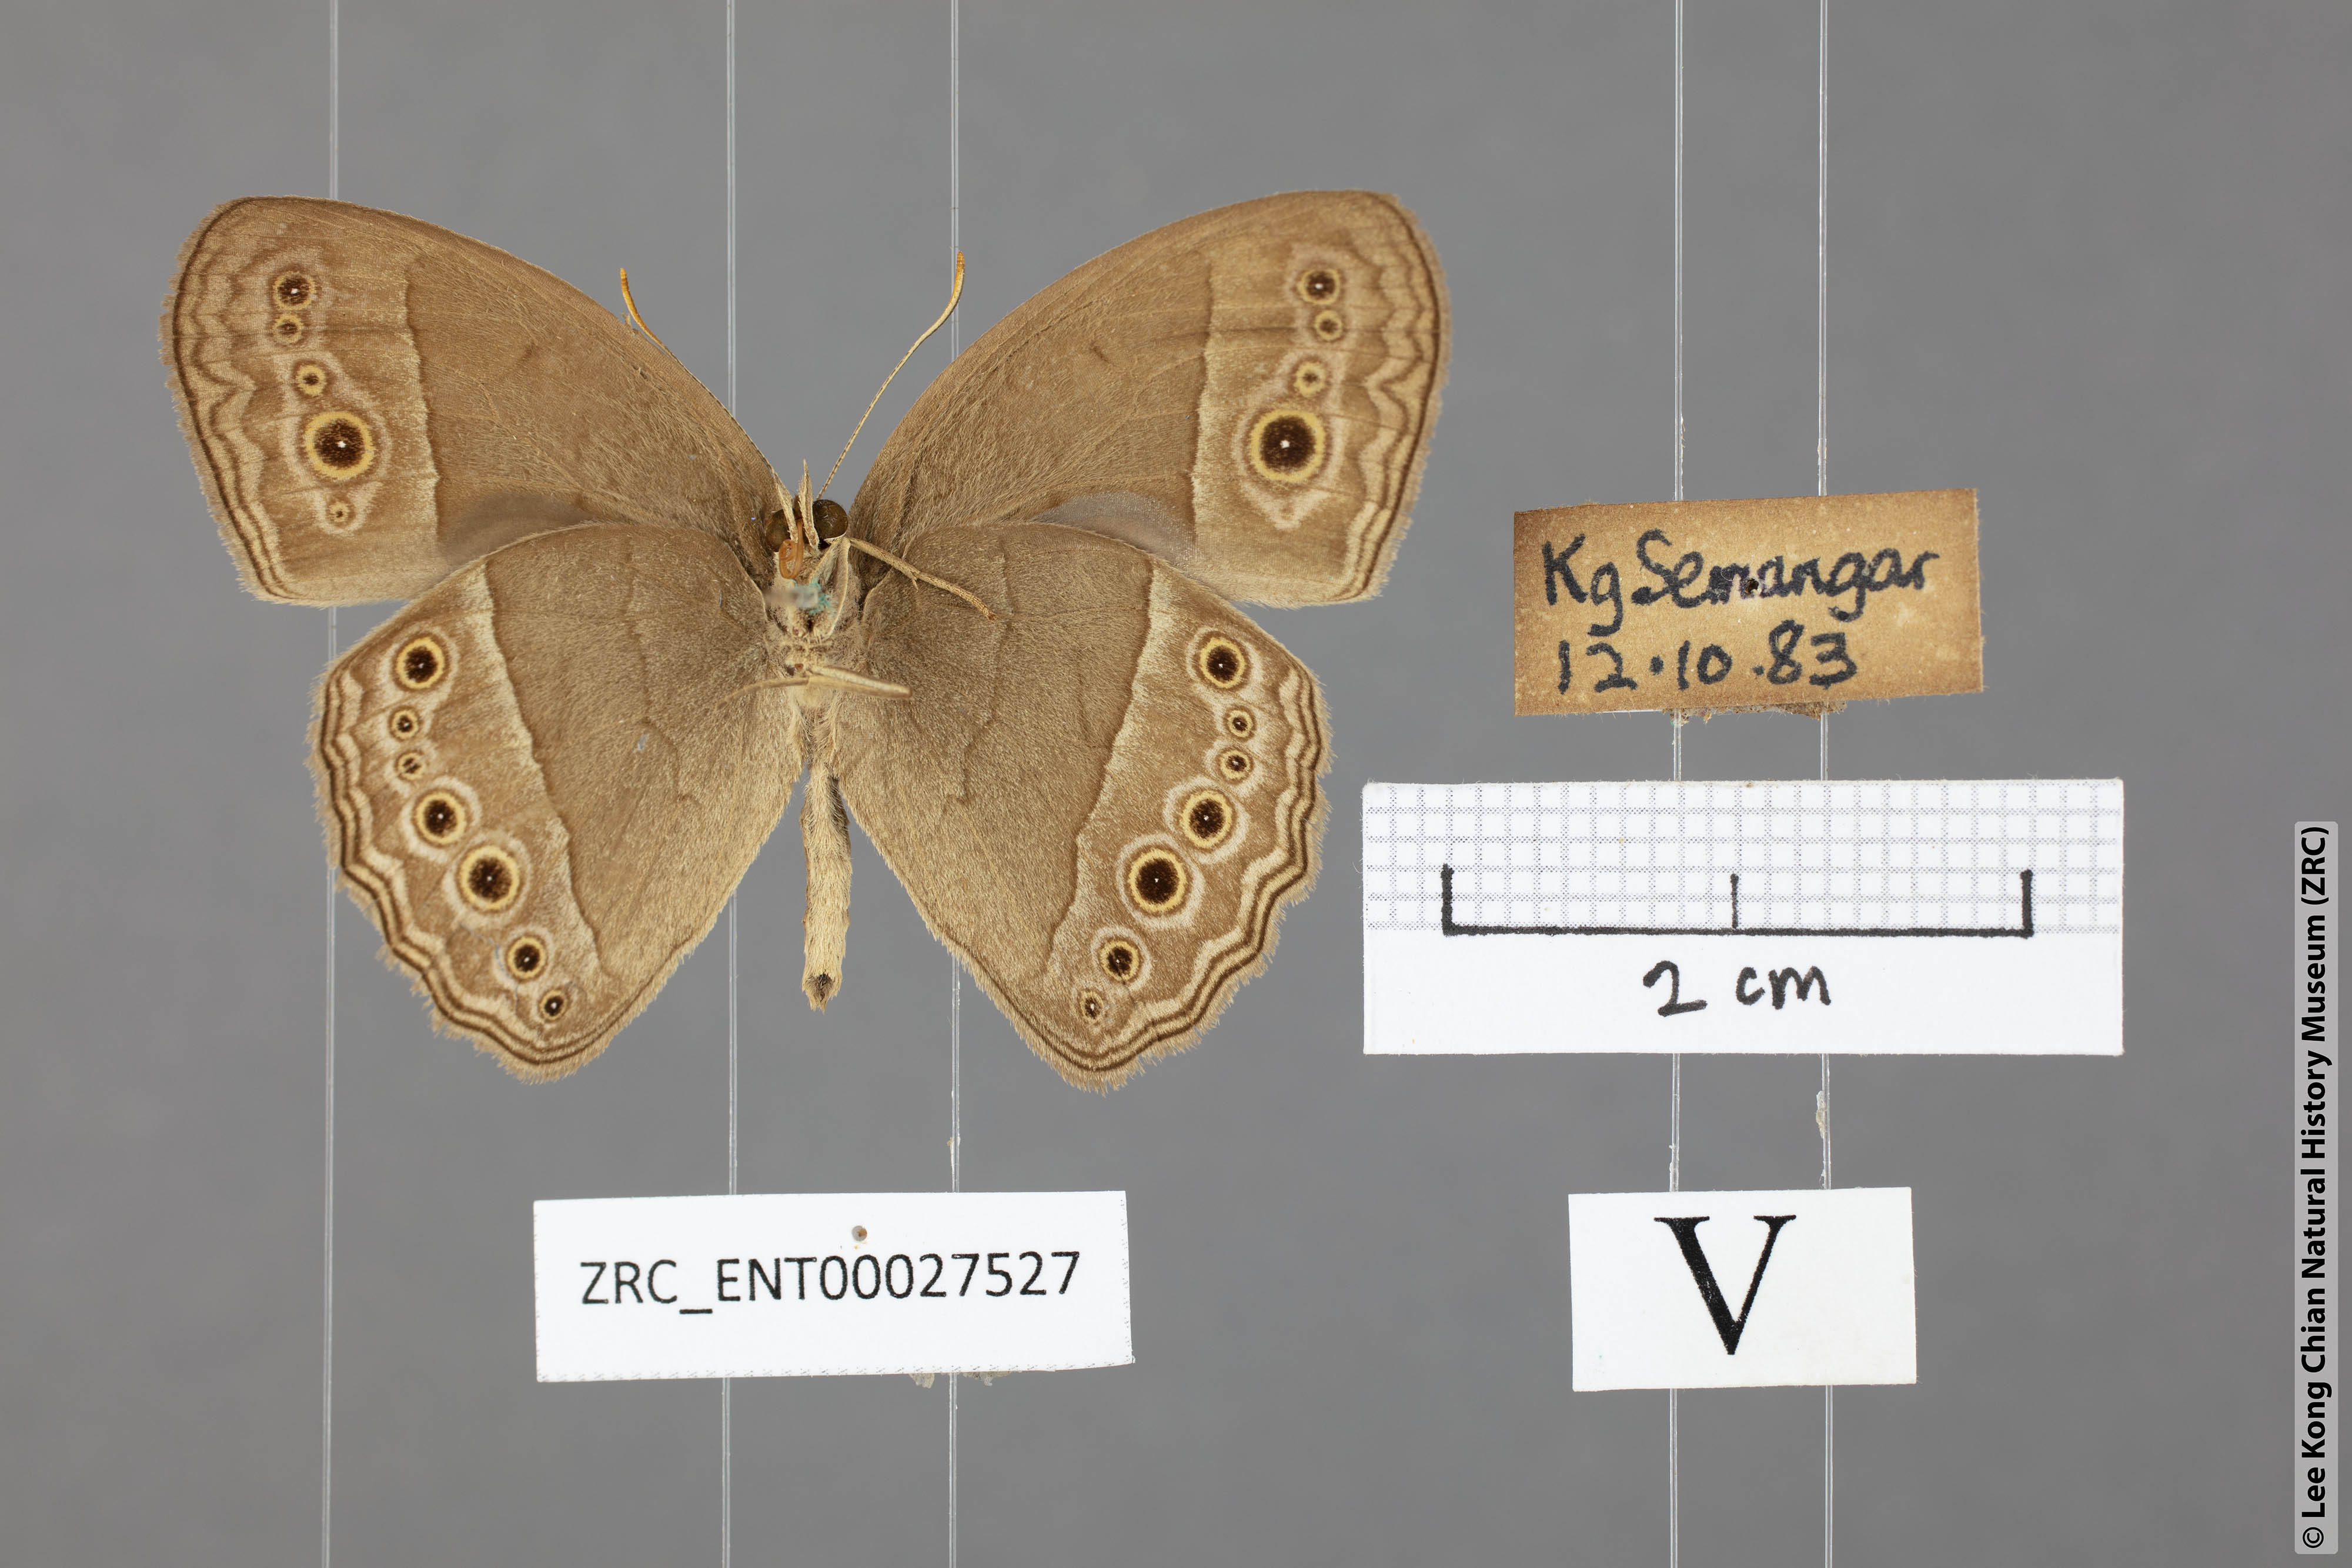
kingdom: Animalia
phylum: Arthropoda
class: Insecta
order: Lepidoptera
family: Nymphalidae
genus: Mycalesis
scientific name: Mycalesis perseoides
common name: Burmese bushbrown
